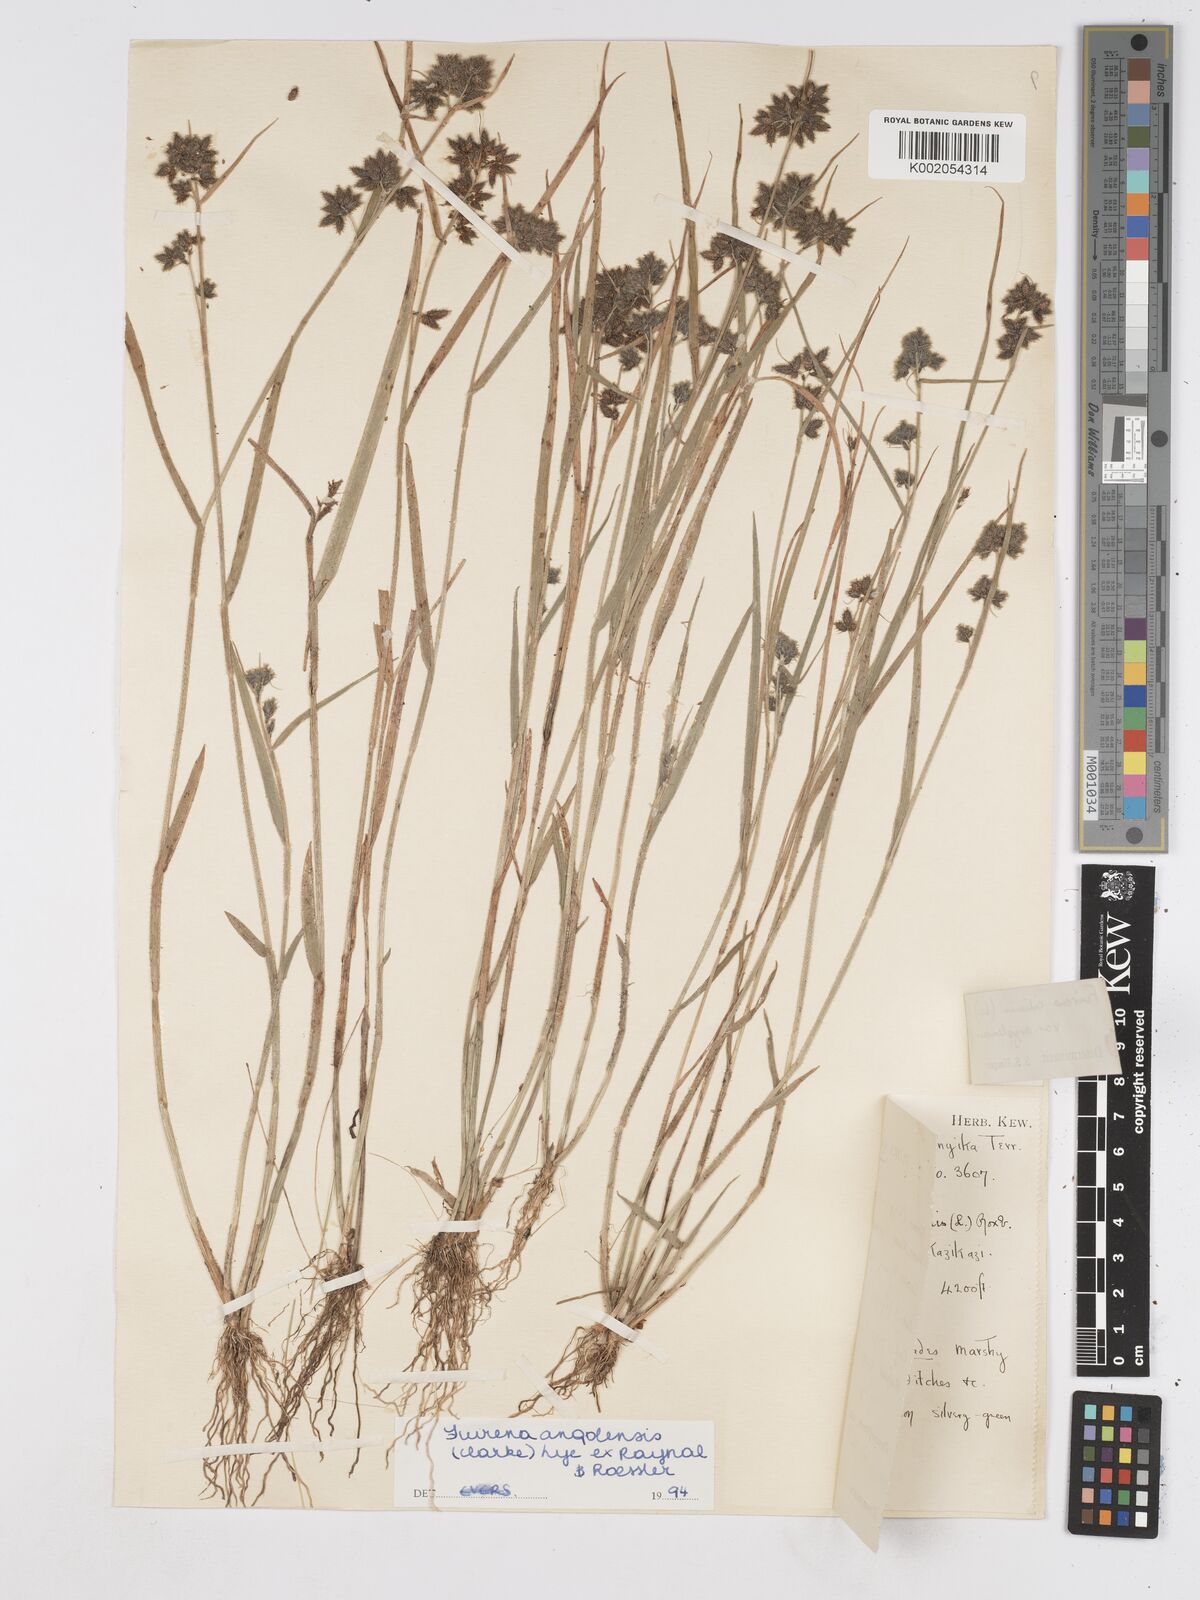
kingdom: Plantae
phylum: Tracheophyta
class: Liliopsida
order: Poales
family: Cyperaceae
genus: Fuirena
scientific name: Fuirena angolensis
